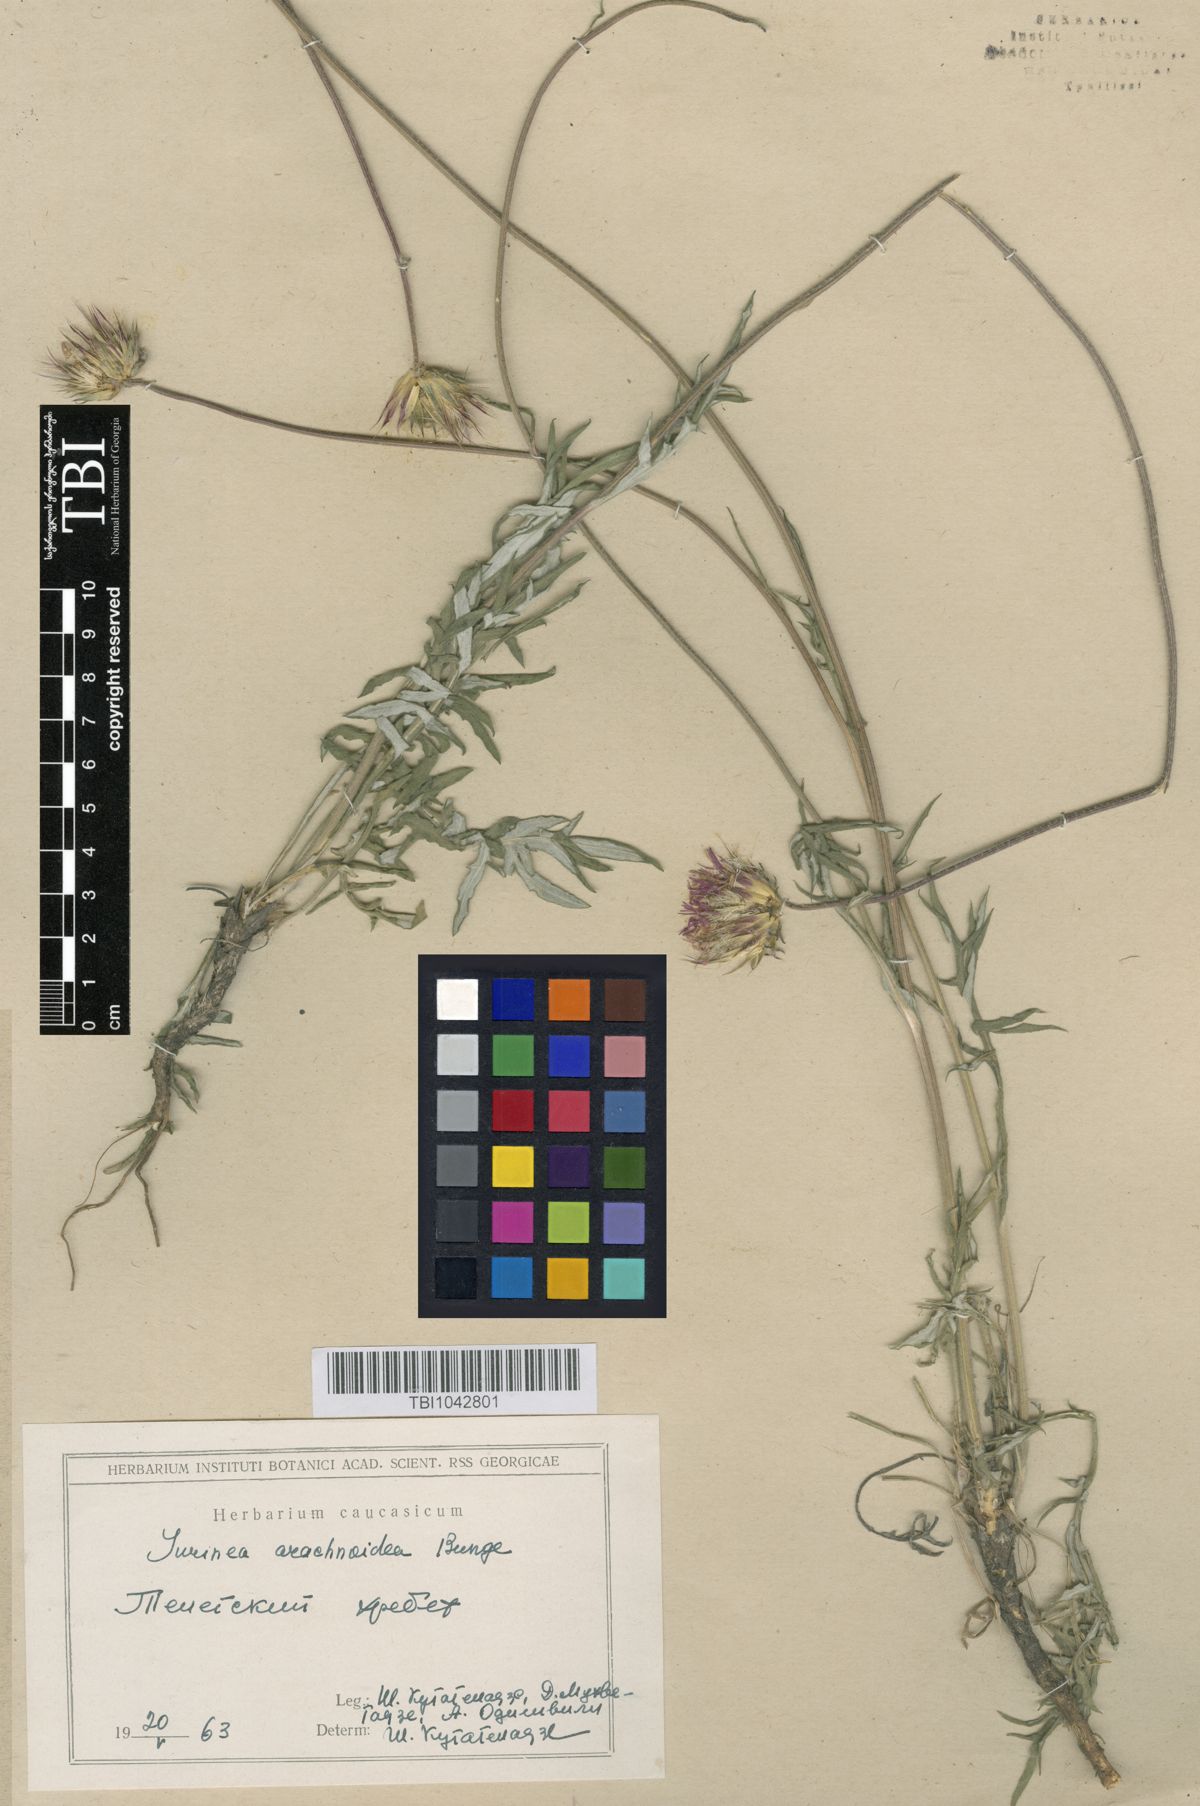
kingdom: Plantae
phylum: Tracheophyta
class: Magnoliopsida
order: Asterales
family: Asteraceae
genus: Jurinea
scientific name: Jurinea blanda
